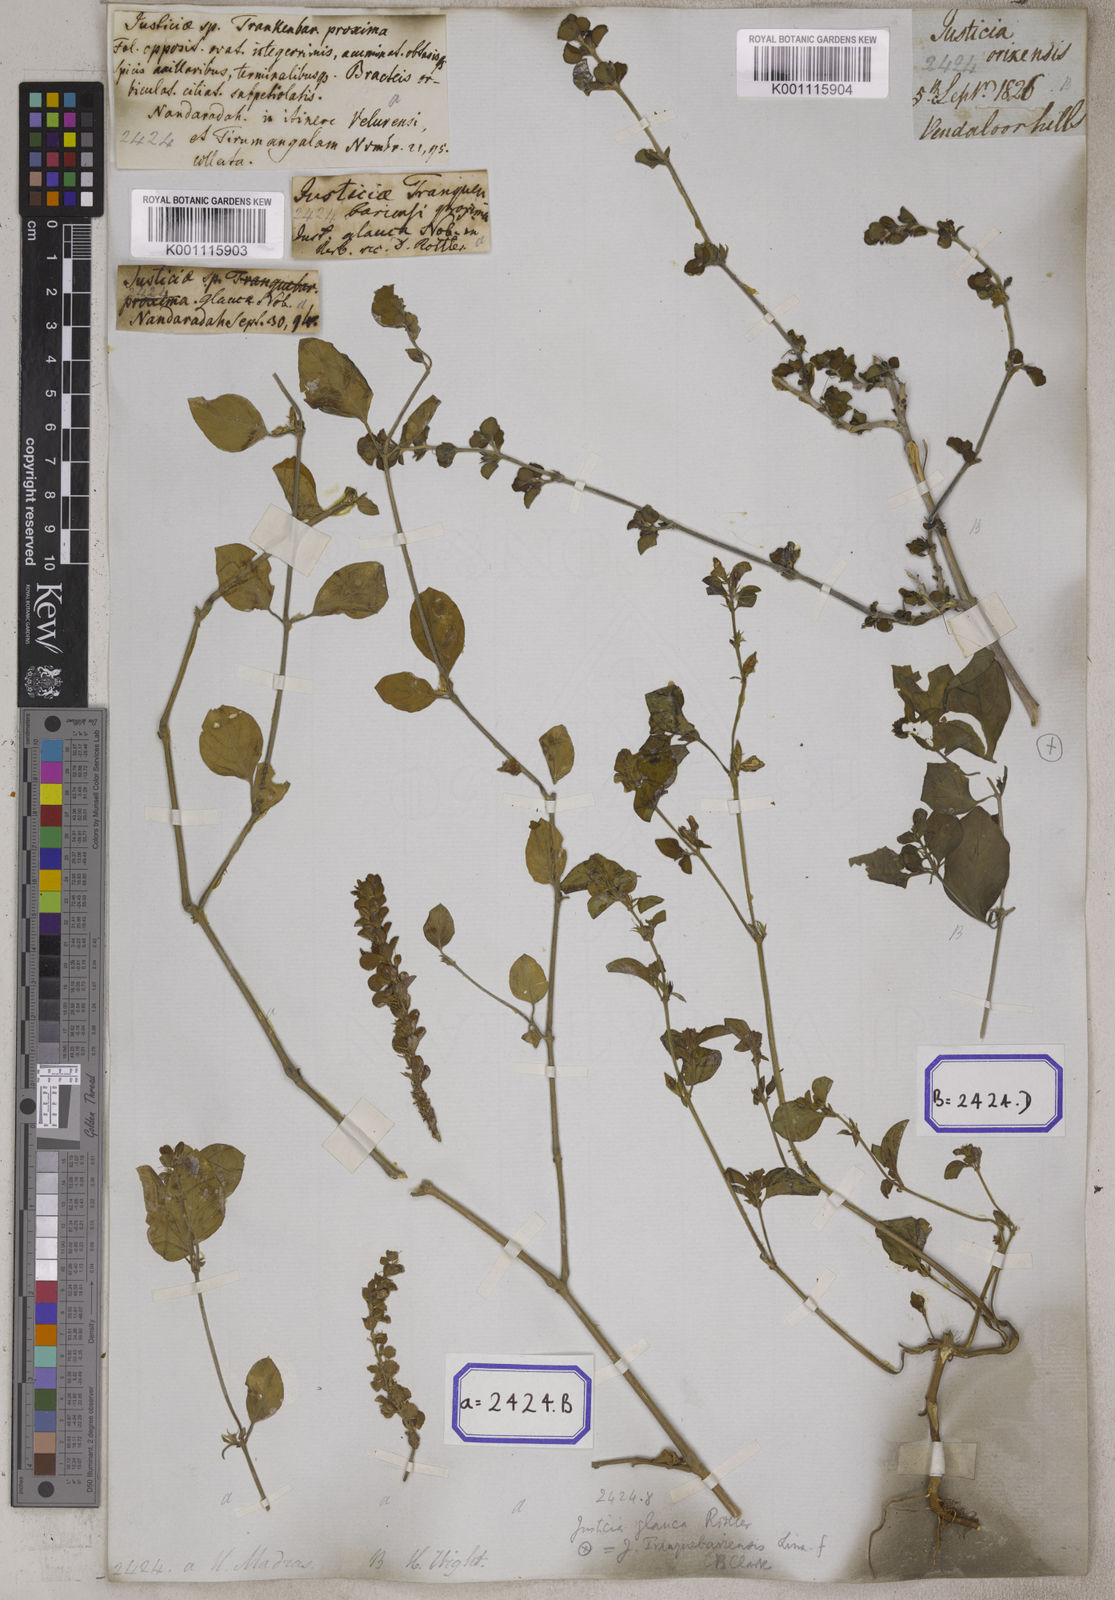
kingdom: Plantae
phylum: Tracheophyta
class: Magnoliopsida
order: Lamiales
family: Acanthaceae
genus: Justicia
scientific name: Justicia tranquebariensis
